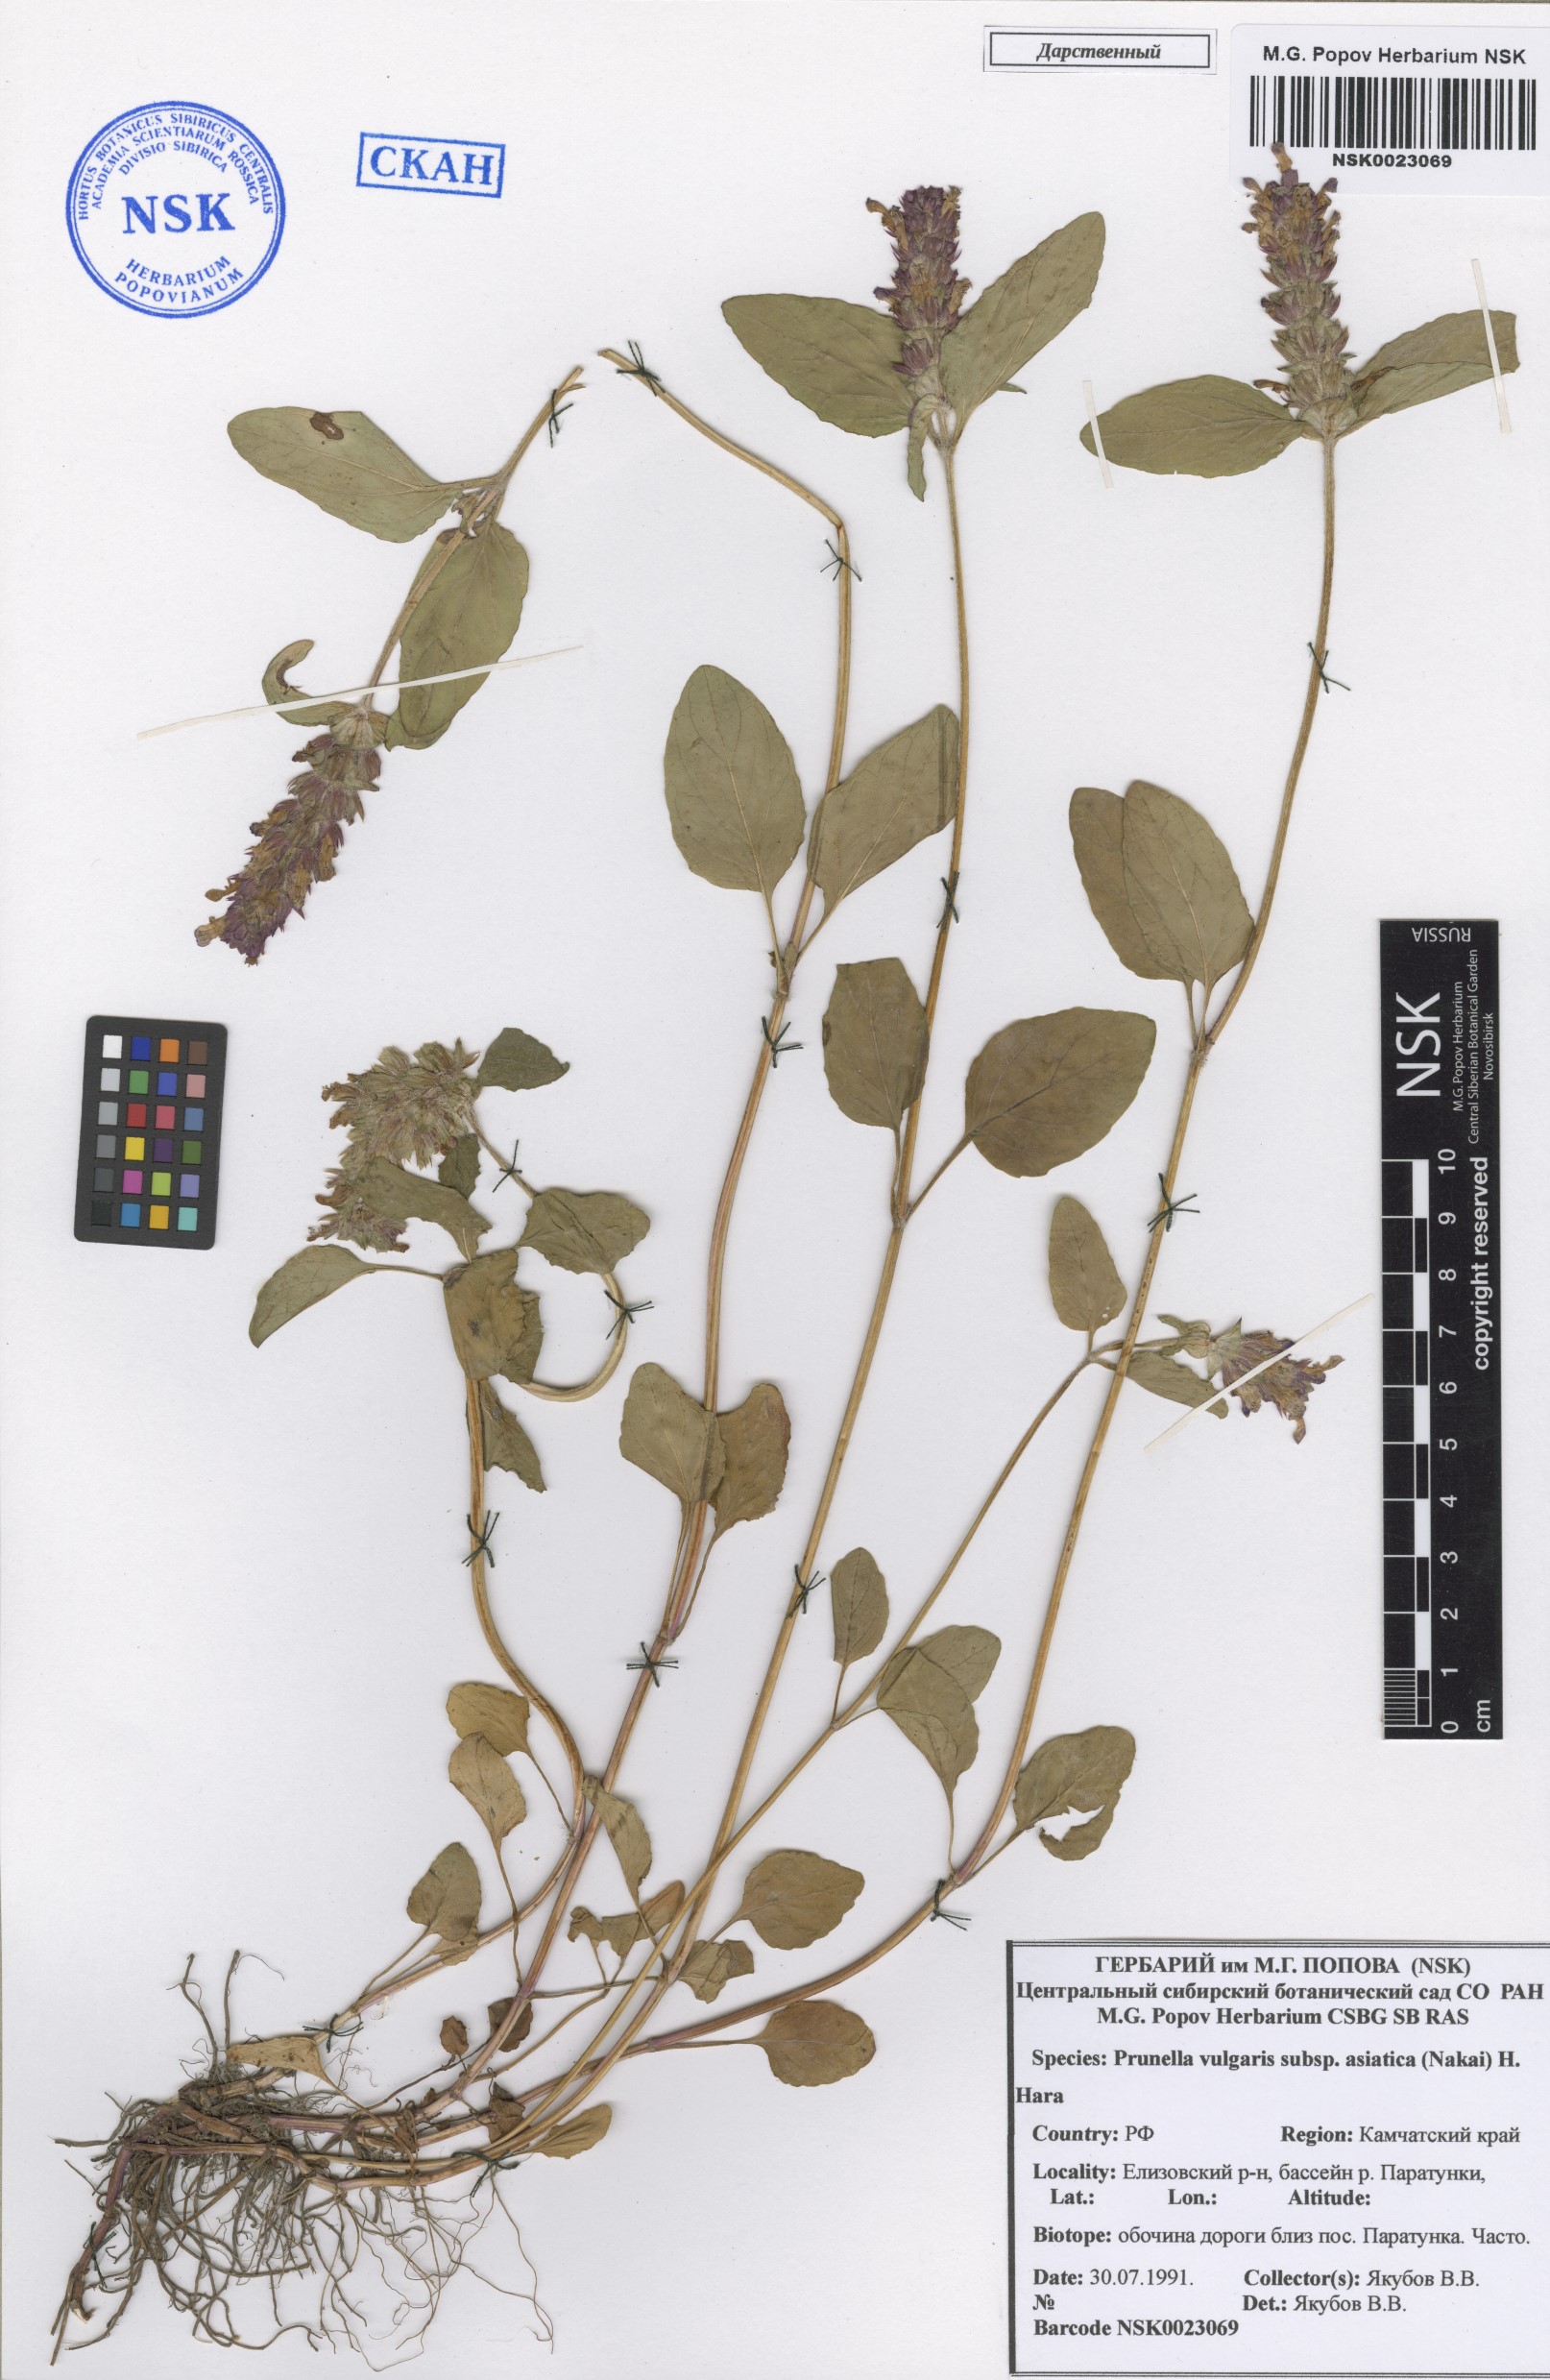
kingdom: Plantae
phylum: Tracheophyta
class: Magnoliopsida
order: Lamiales
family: Lamiaceae
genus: Prunella
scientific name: Prunella vulgaris
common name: Heal-all
